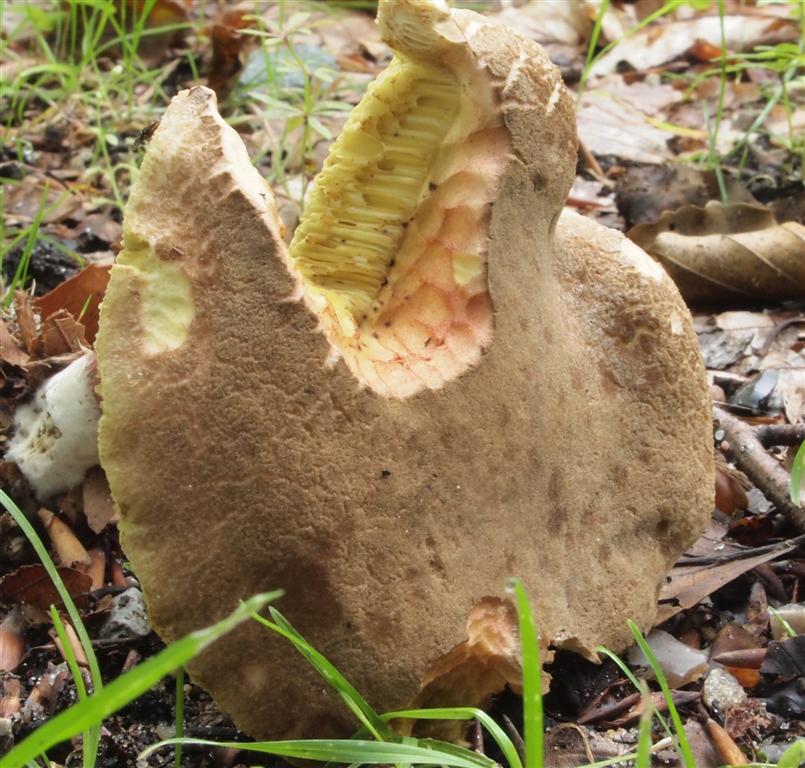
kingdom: Fungi
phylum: Basidiomycota
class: Agaricomycetes
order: Boletales
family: Boletaceae
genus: Xerocomellus
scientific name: Xerocomellus chrysenteron
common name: rødsprukken rørhat
